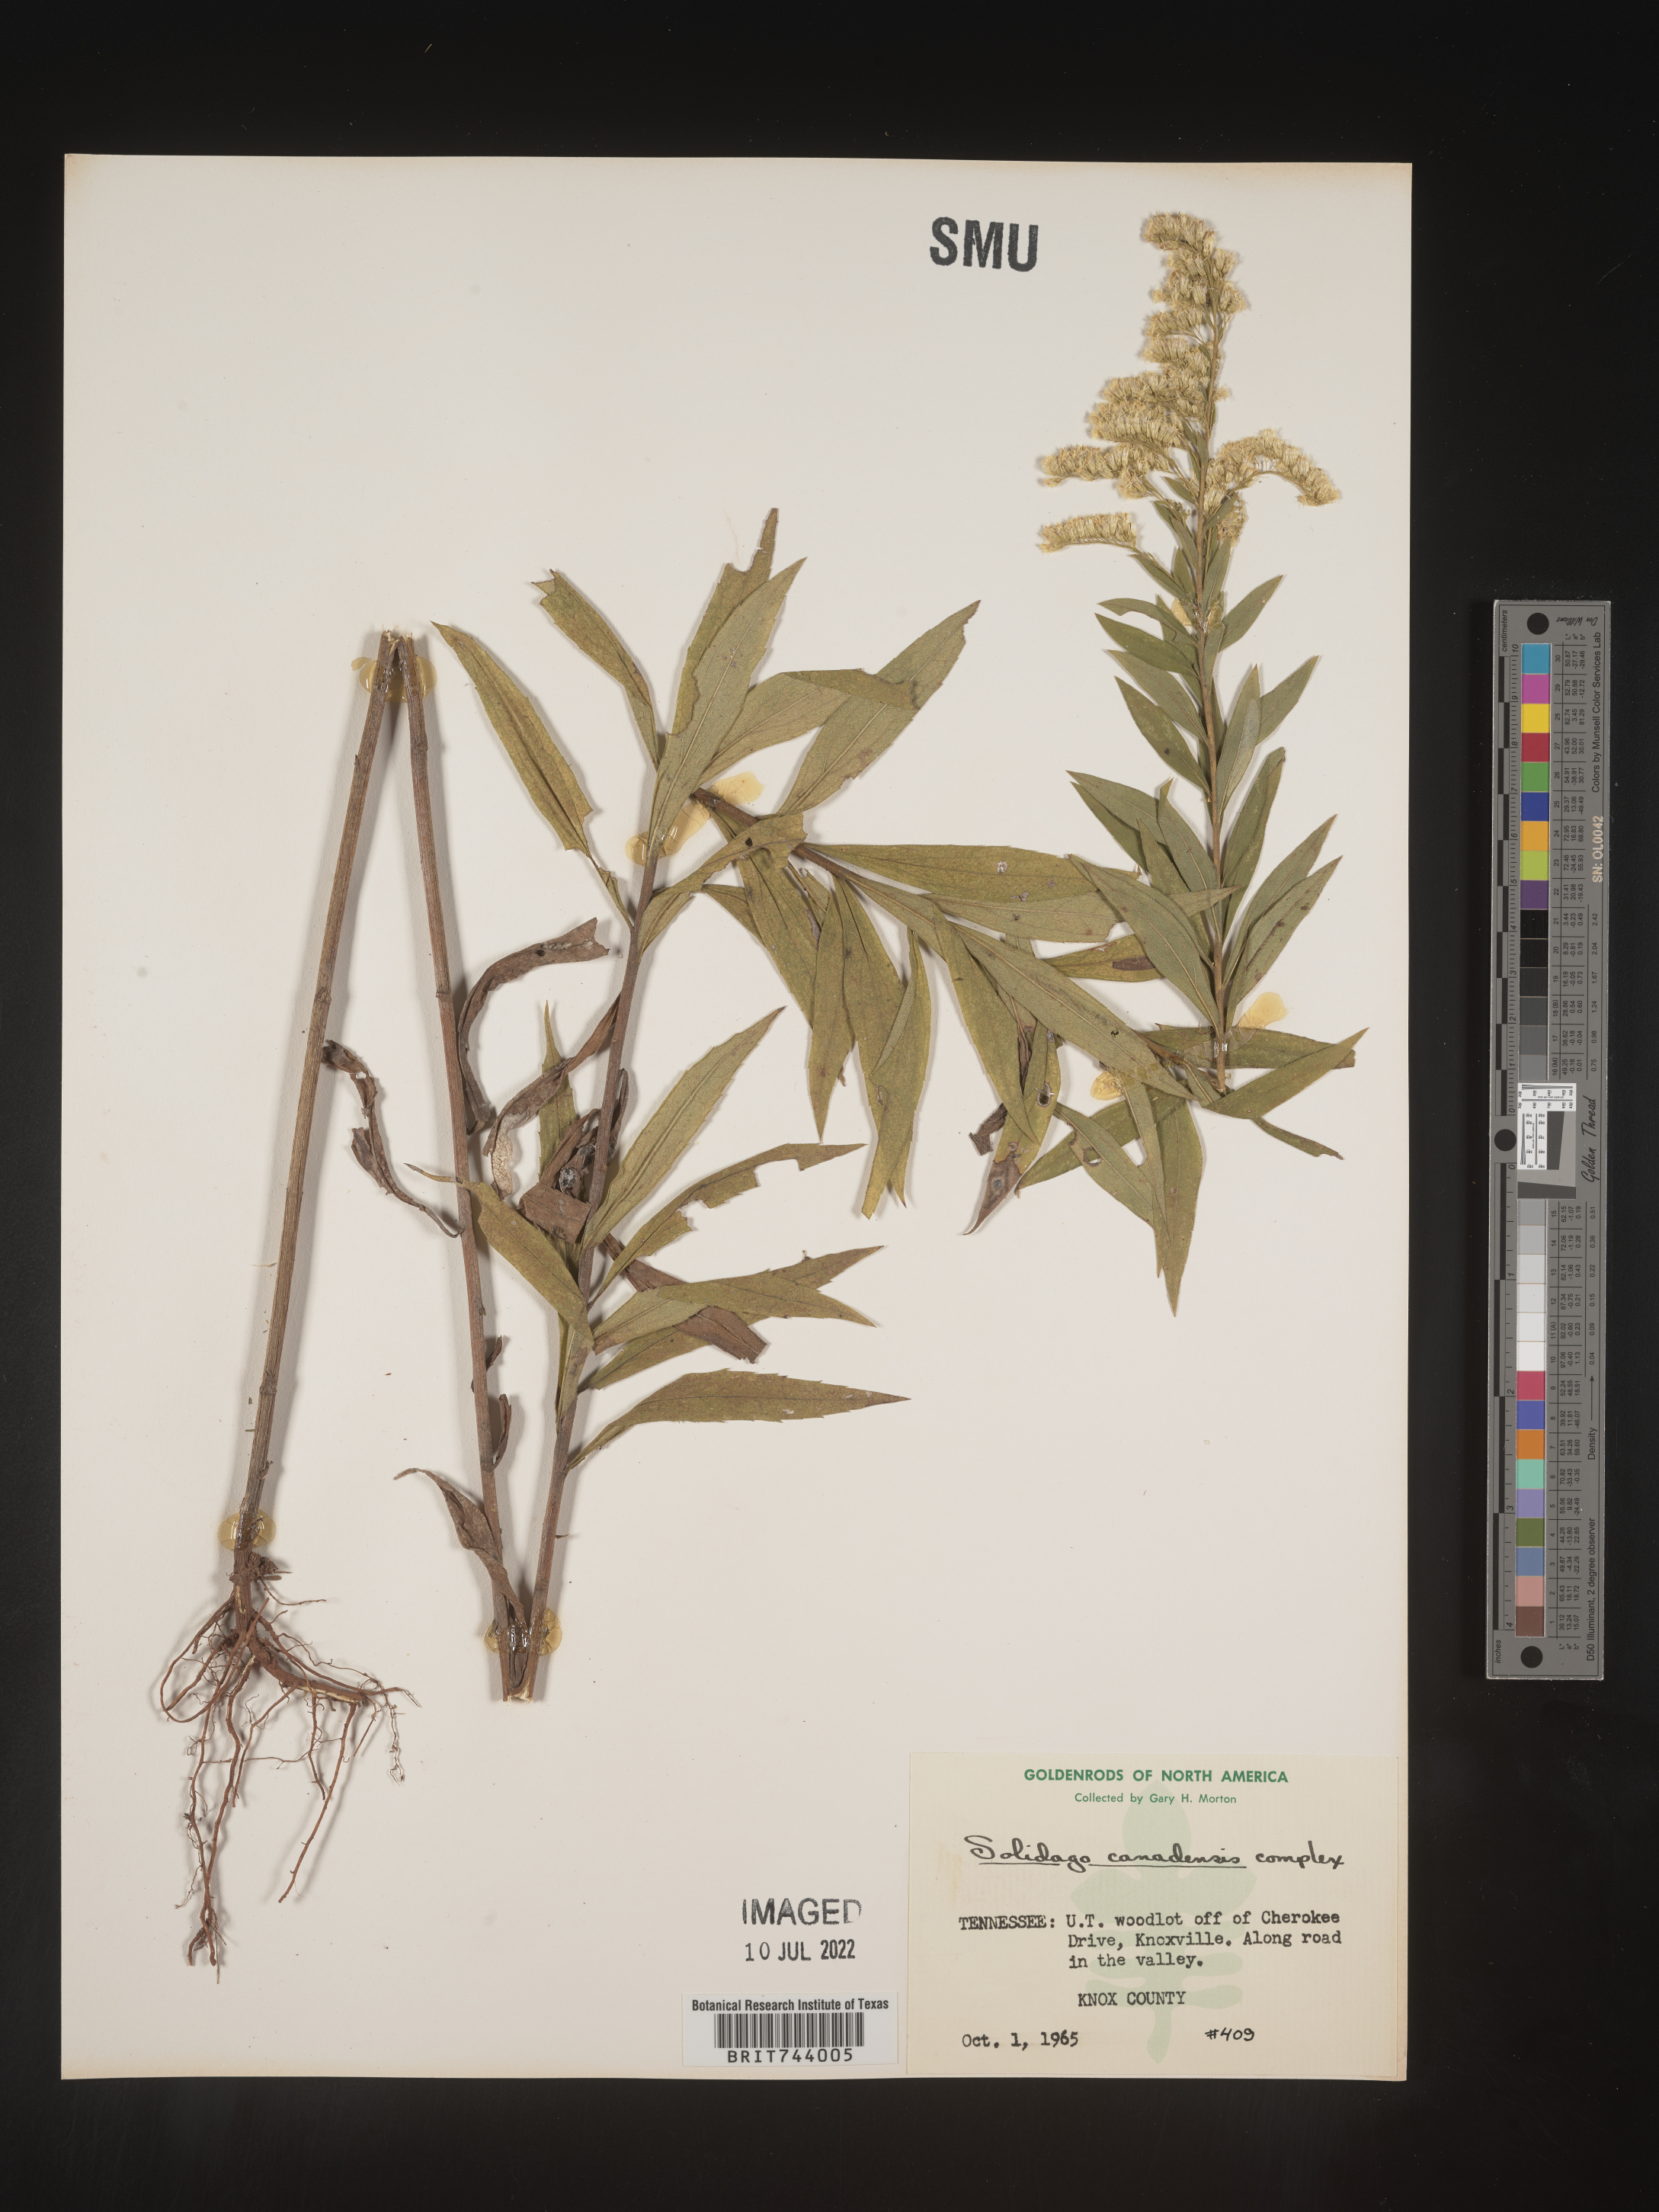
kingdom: Plantae
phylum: Tracheophyta
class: Magnoliopsida
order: Asterales
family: Asteraceae
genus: Solidago
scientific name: Solidago altissima
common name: Late goldenrod
